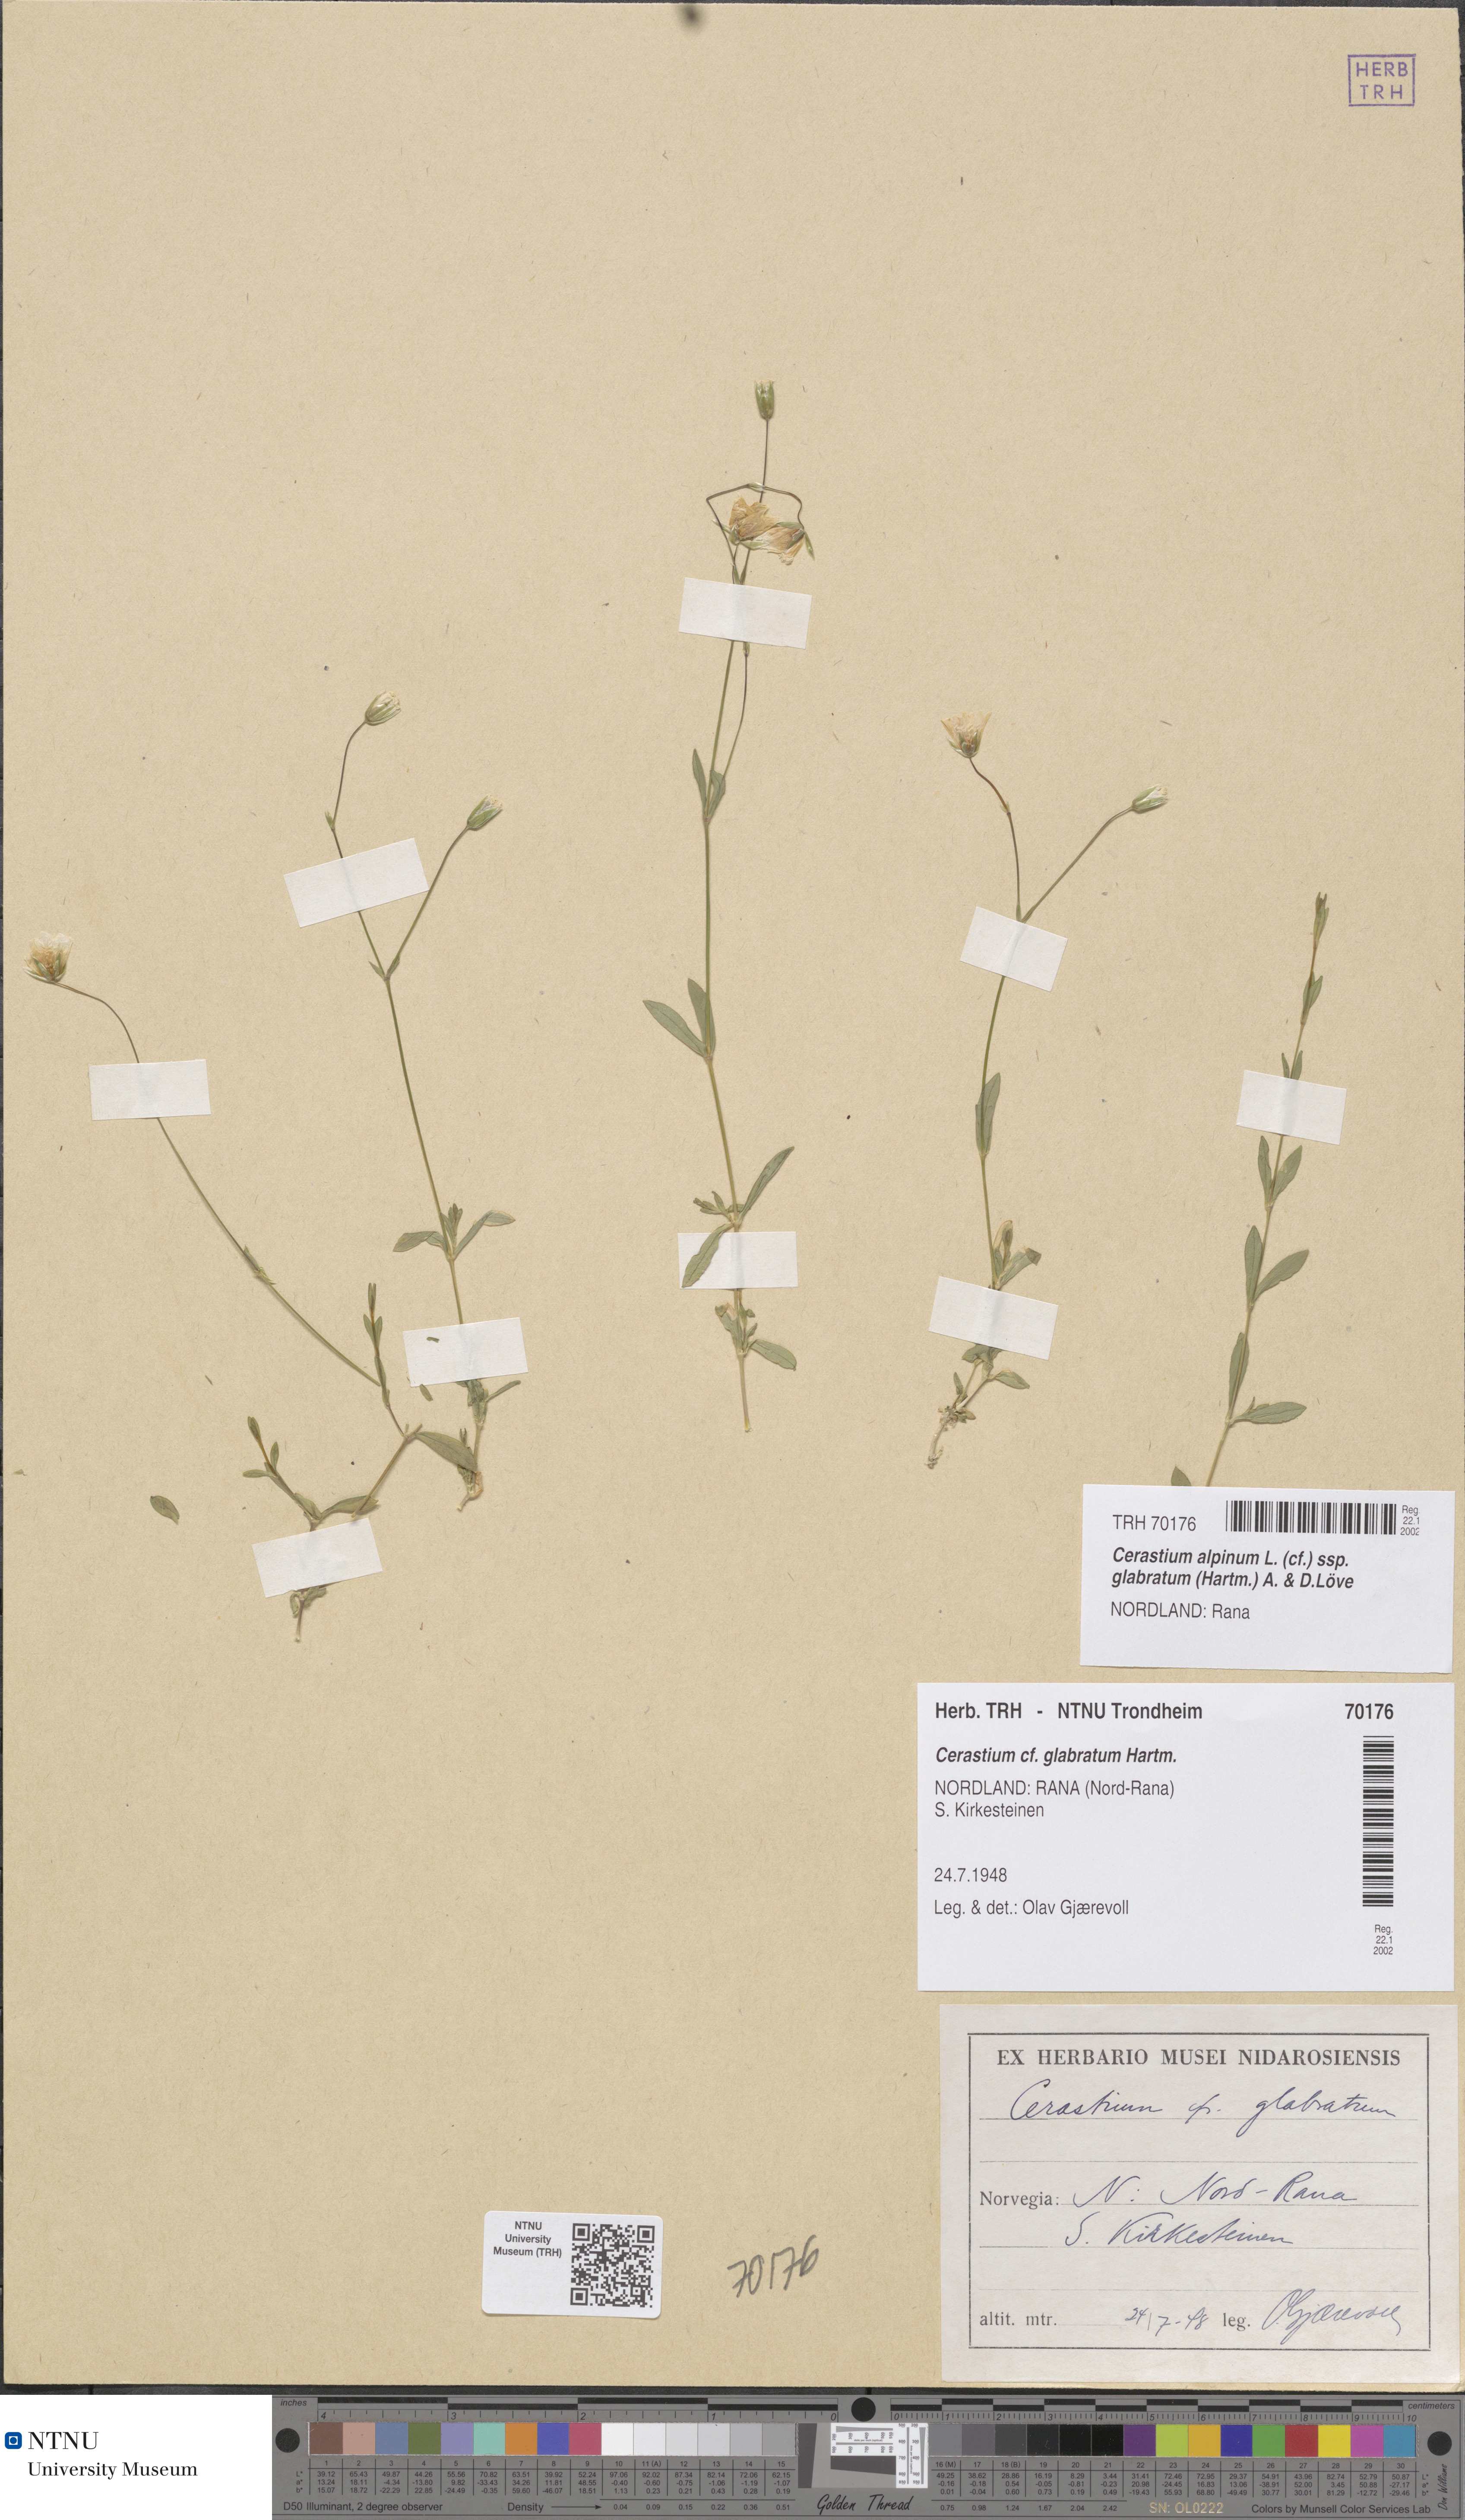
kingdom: Plantae
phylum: Tracheophyta
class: Magnoliopsida
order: Caryophyllales
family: Caryophyllaceae
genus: Cerastium
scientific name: Cerastium alpinum
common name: Alpine mouse-ear
